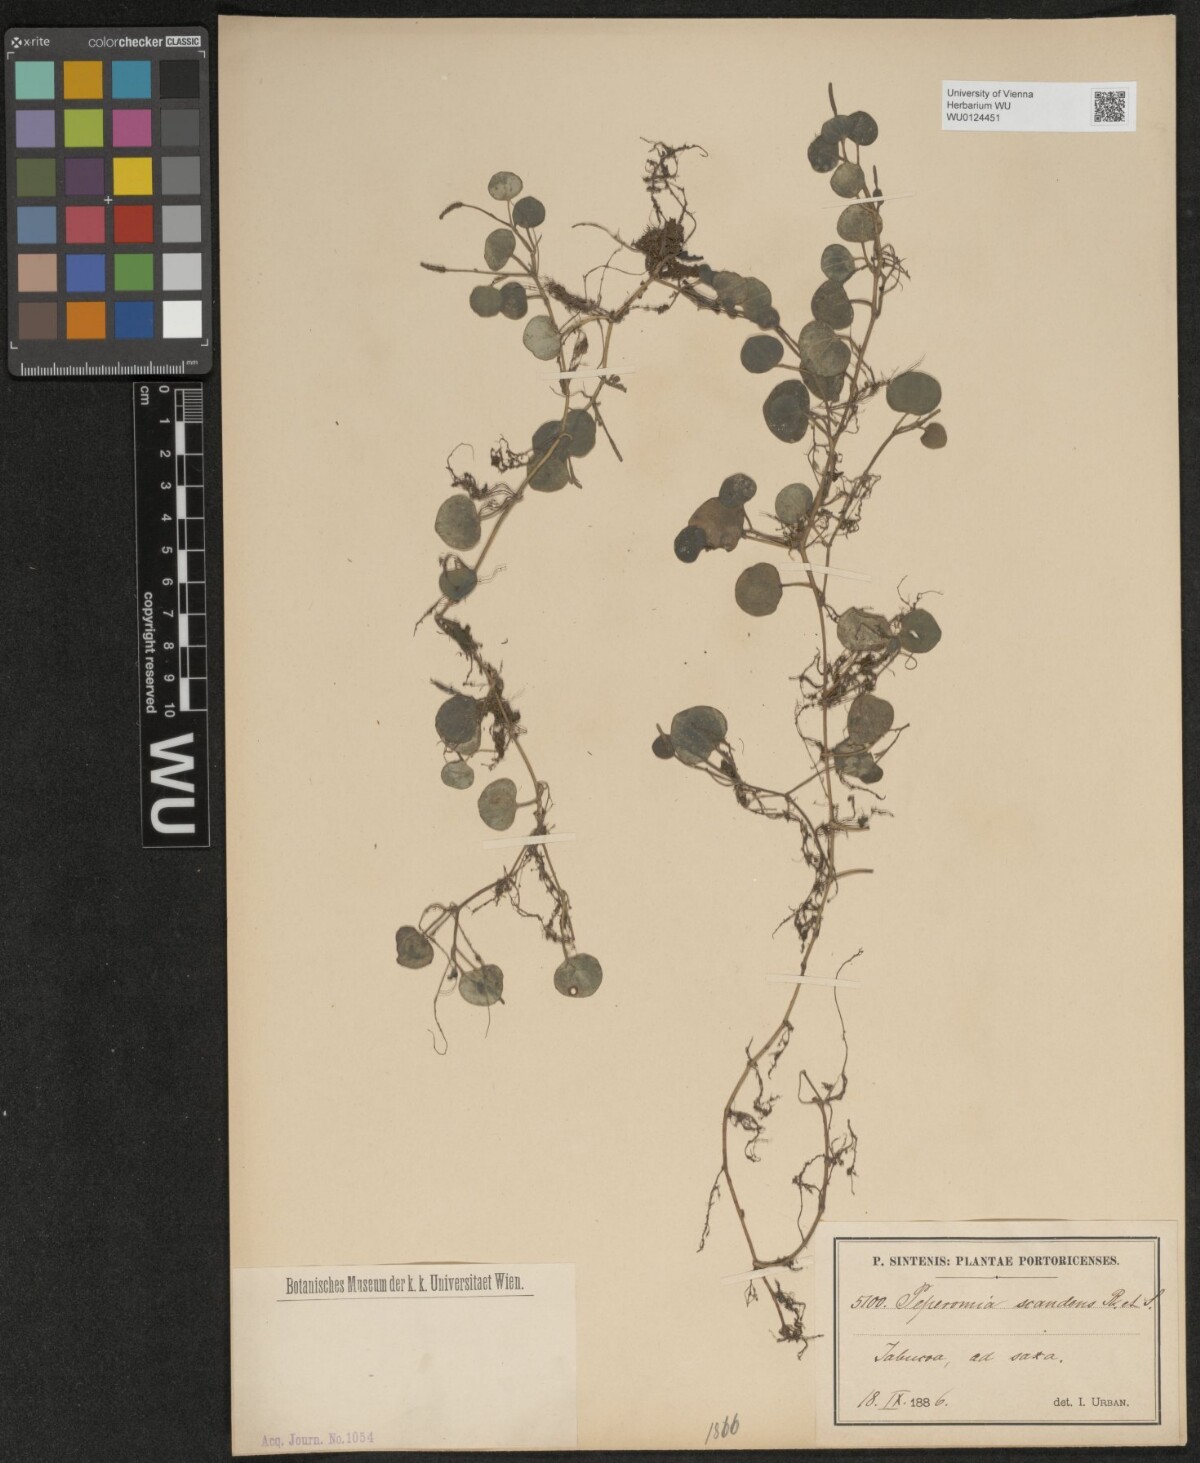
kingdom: Plantae
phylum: Tracheophyta
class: Magnoliopsida
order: Piperales
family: Piperaceae
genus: Peperomia
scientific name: Peperomia serpens
